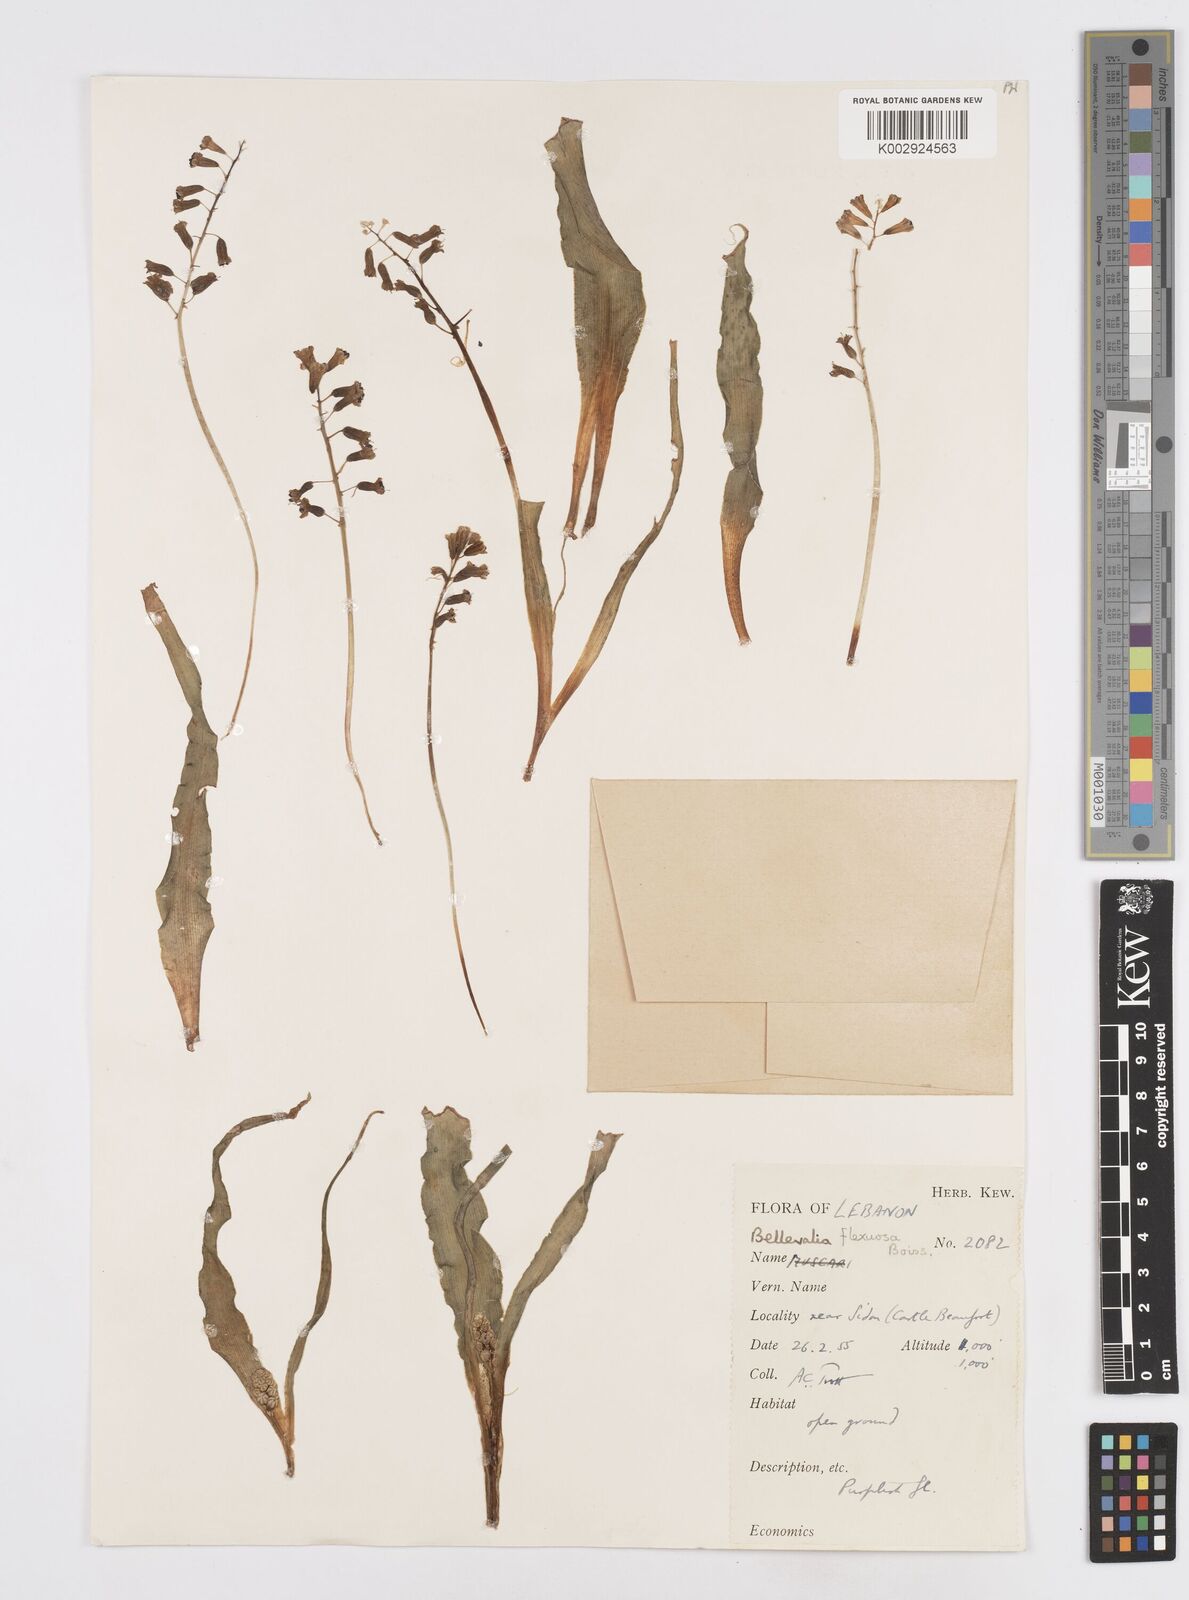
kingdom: Plantae
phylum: Tracheophyta
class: Liliopsida
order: Asparagales
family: Asparagaceae
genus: Bellevalia
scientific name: Bellevalia flexuosa
